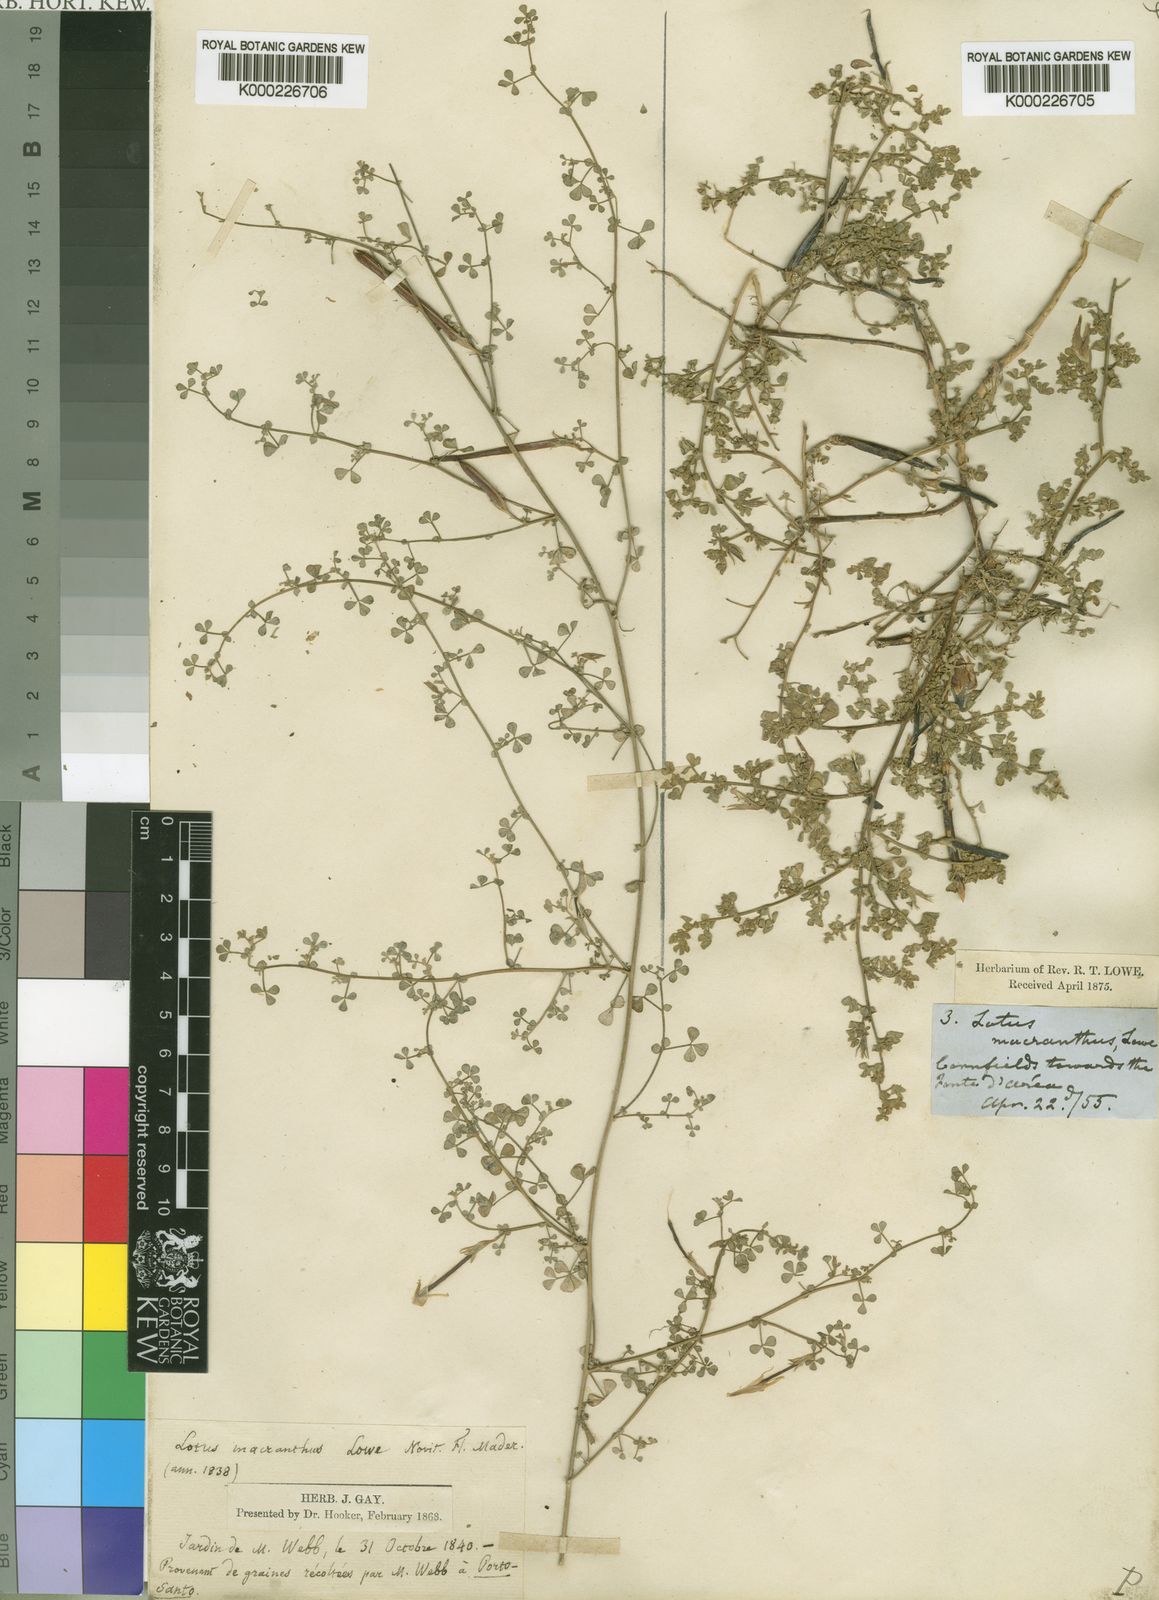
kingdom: Plantae
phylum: Tracheophyta
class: Magnoliopsida
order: Fabales
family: Fabaceae
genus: Lotus
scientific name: Lotus macranthus
